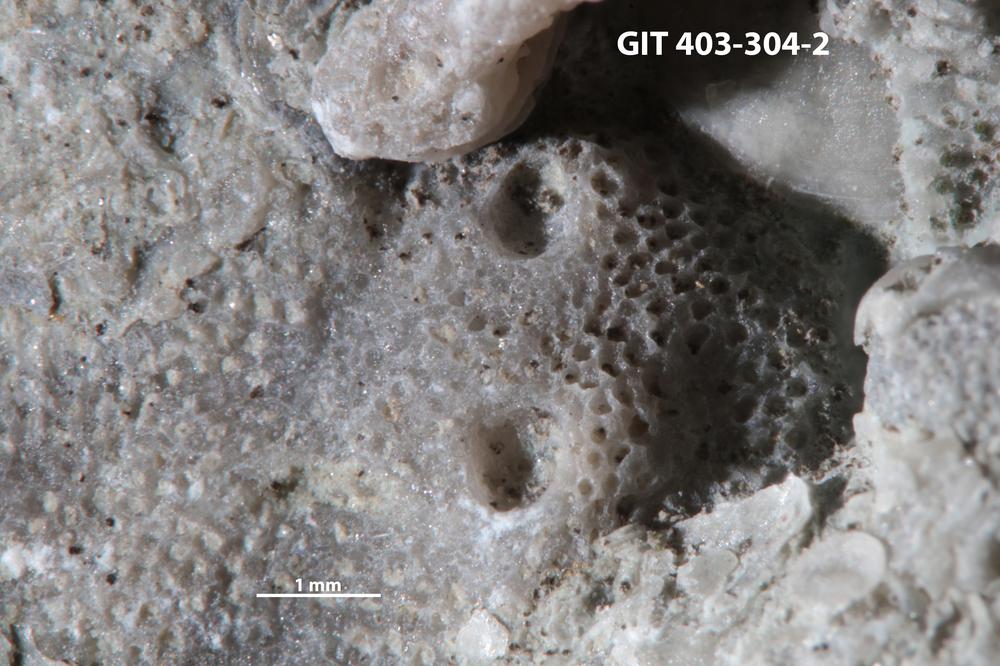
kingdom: Animalia
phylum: Cnidaria
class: Hydrozoa
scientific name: Hydrozoa
